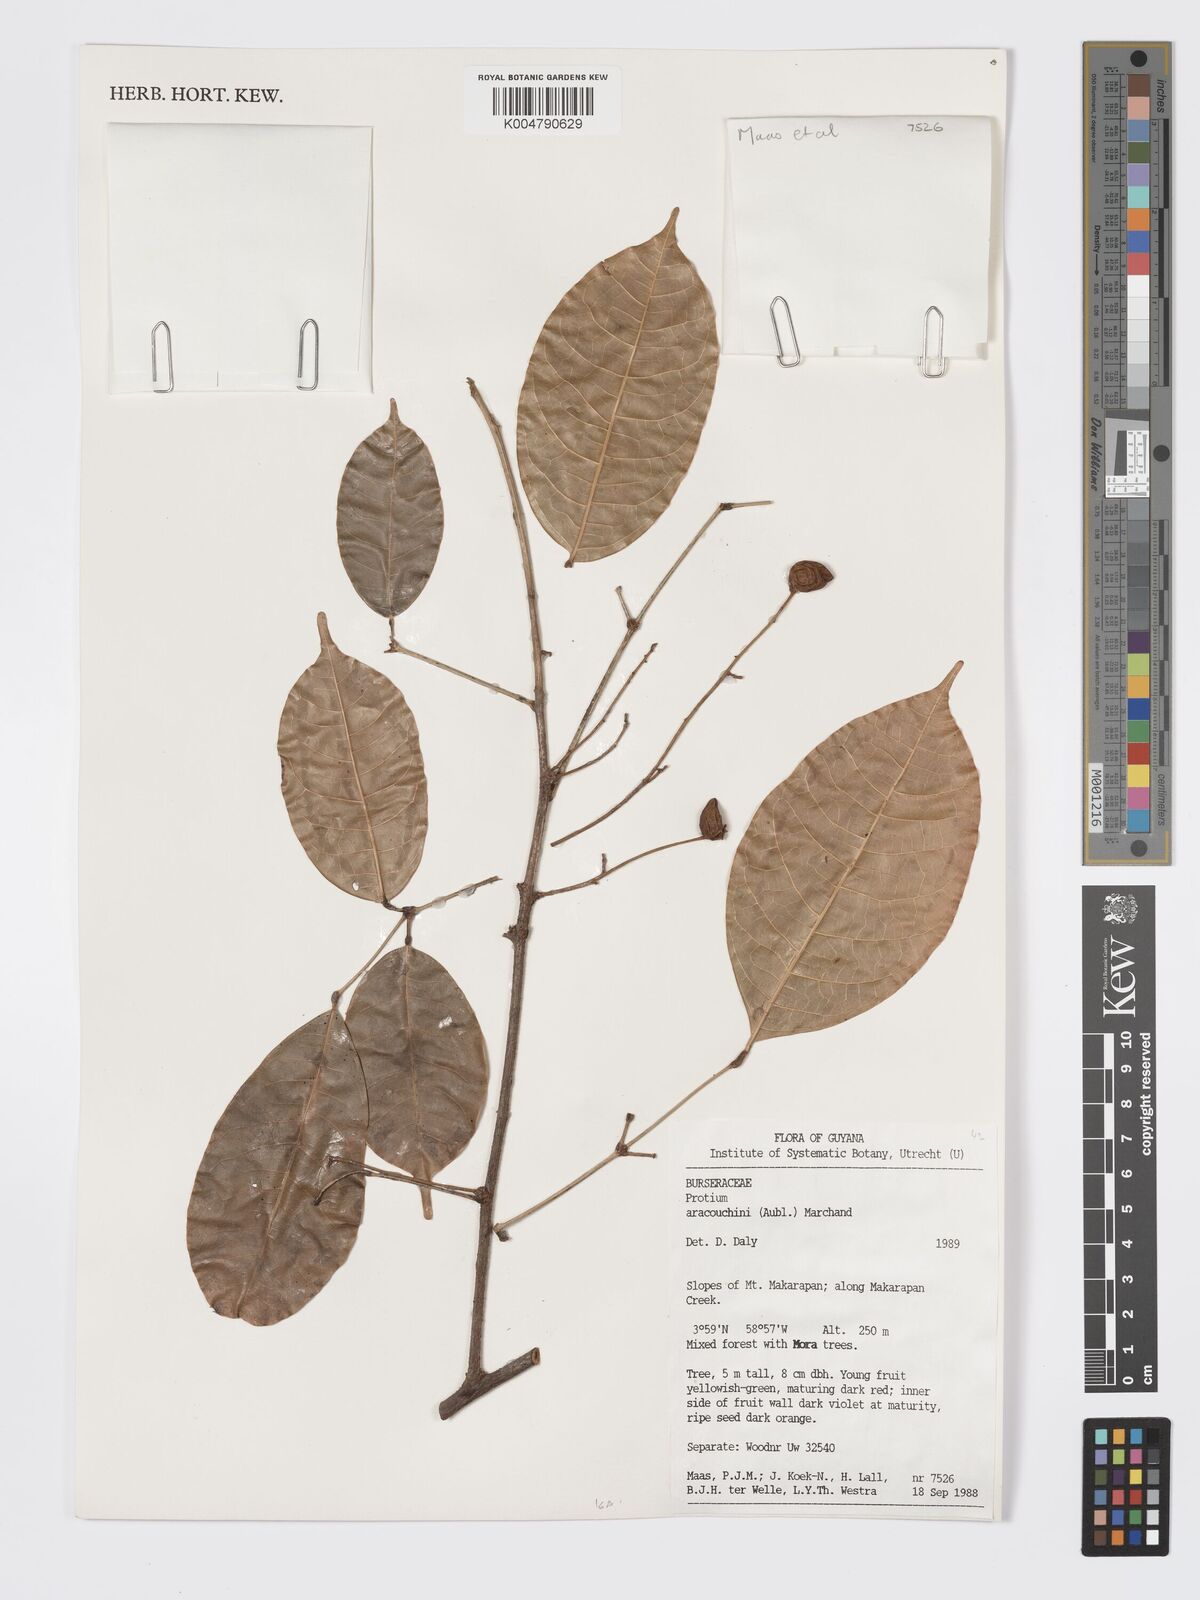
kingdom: Plantae
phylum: Tracheophyta
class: Magnoliopsida
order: Sapindales
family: Burseraceae
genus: Protium
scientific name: Protium aracouchini
